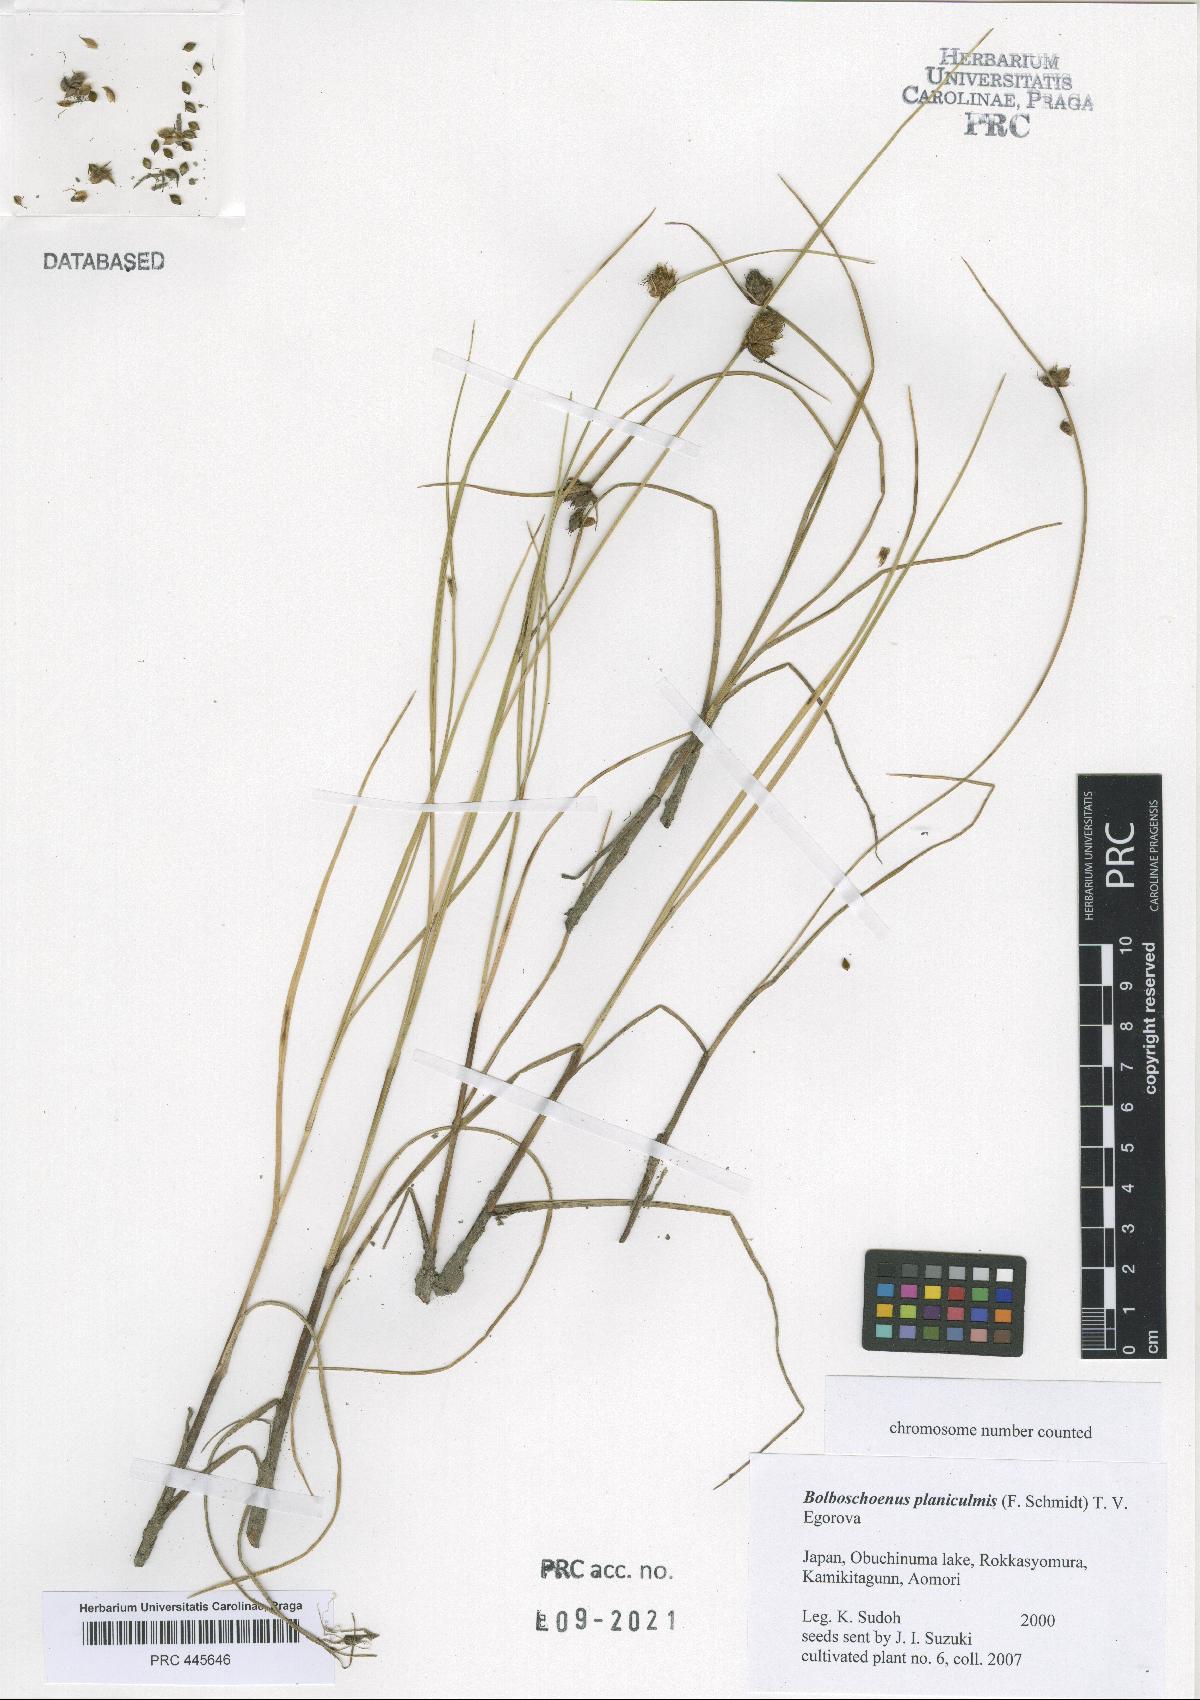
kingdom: Plantae
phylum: Tracheophyta
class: Liliopsida
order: Poales
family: Cyperaceae
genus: Bolboschoenus
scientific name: Bolboschoenus planiculmis
